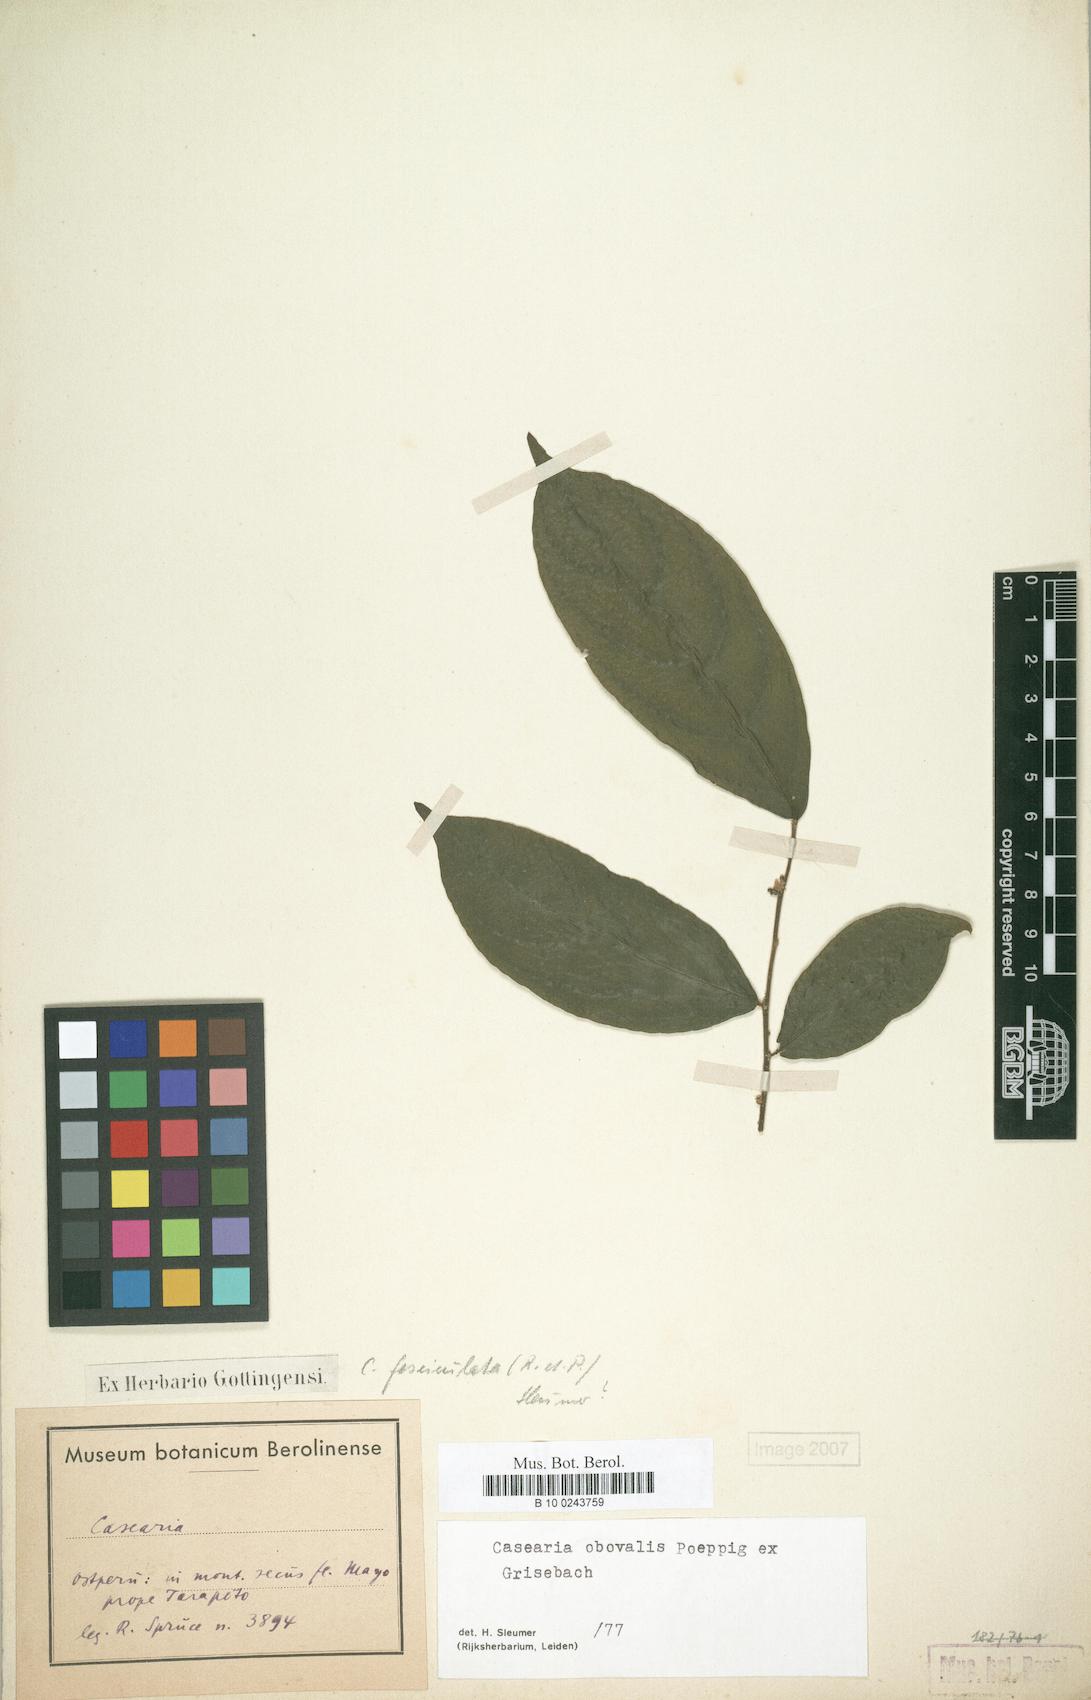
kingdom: Plantae
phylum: Tracheophyta
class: Magnoliopsida
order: Malpighiales
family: Salicaceae
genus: Casearia
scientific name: Casearia obovalis
